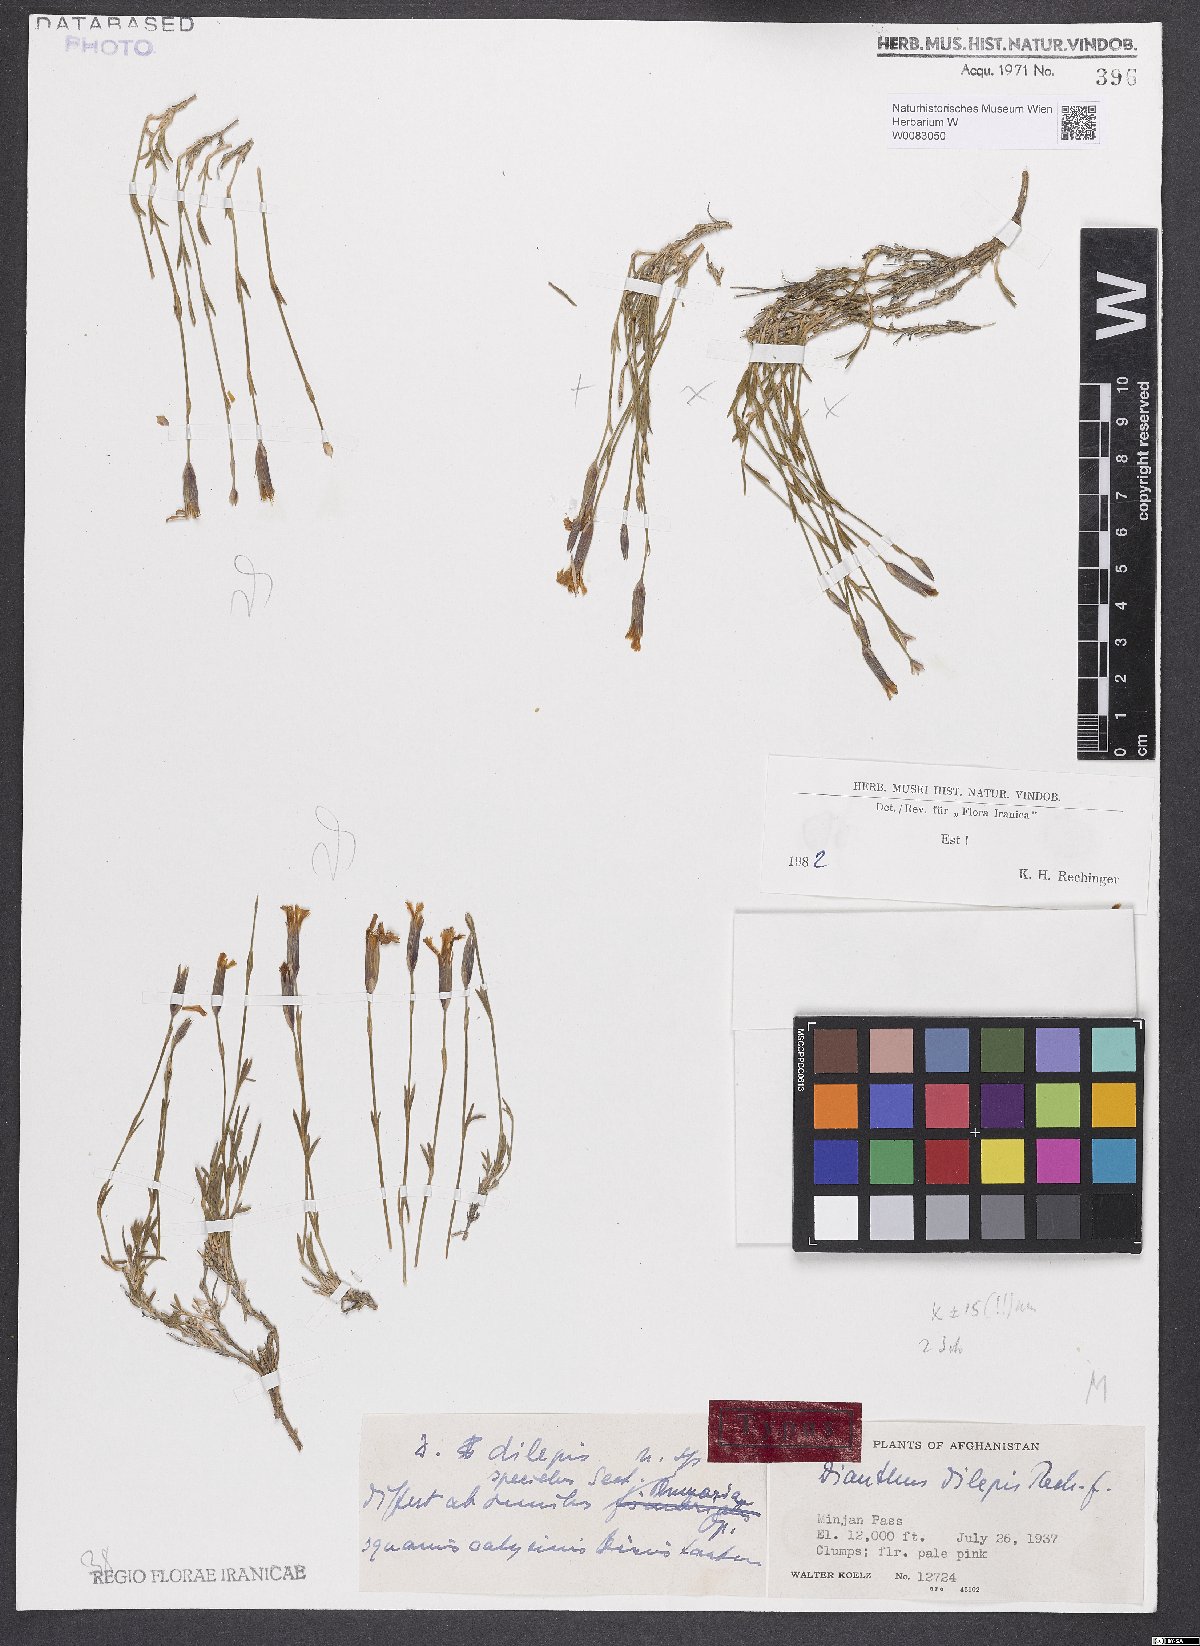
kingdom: Plantae
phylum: Tracheophyta
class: Magnoliopsida
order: Caryophyllales
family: Caryophyllaceae
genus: Dianthus
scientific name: Dianthus dilepis
